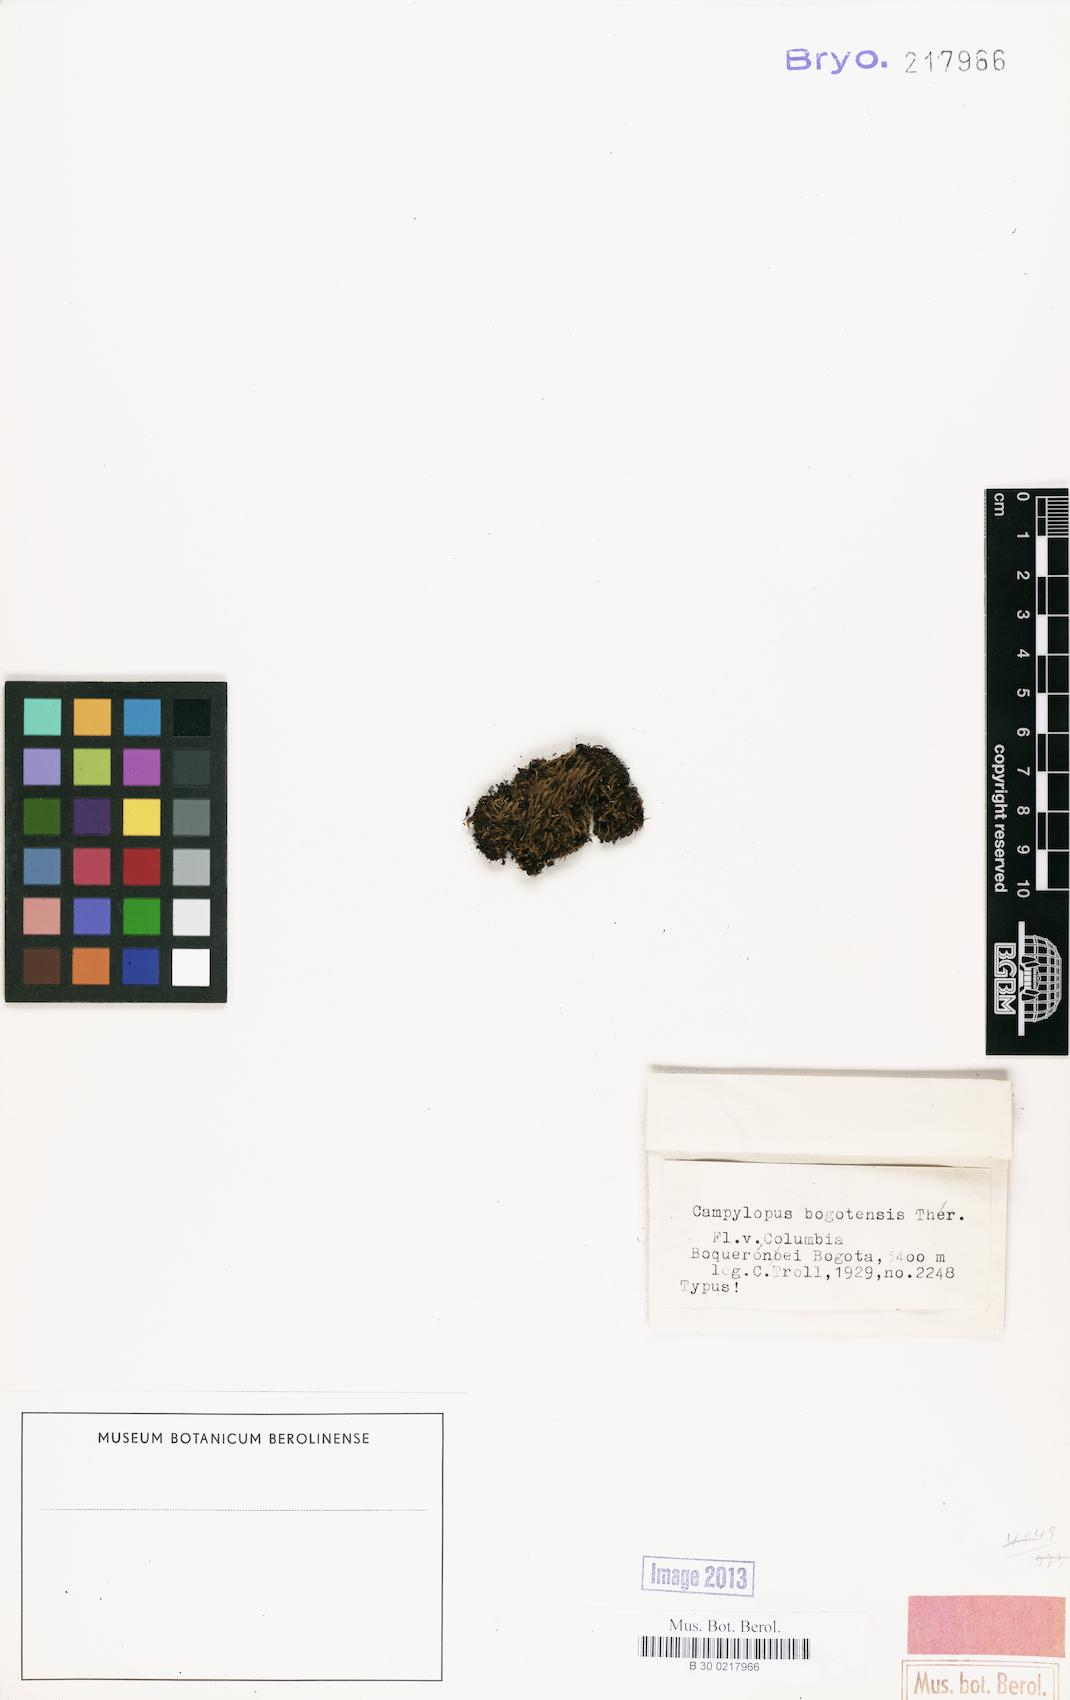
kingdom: Plantae
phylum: Bryophyta
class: Bryopsida
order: Dicranales
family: Leucobryaceae
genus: Sphaerothecium
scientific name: Sphaerothecium phascoideum
